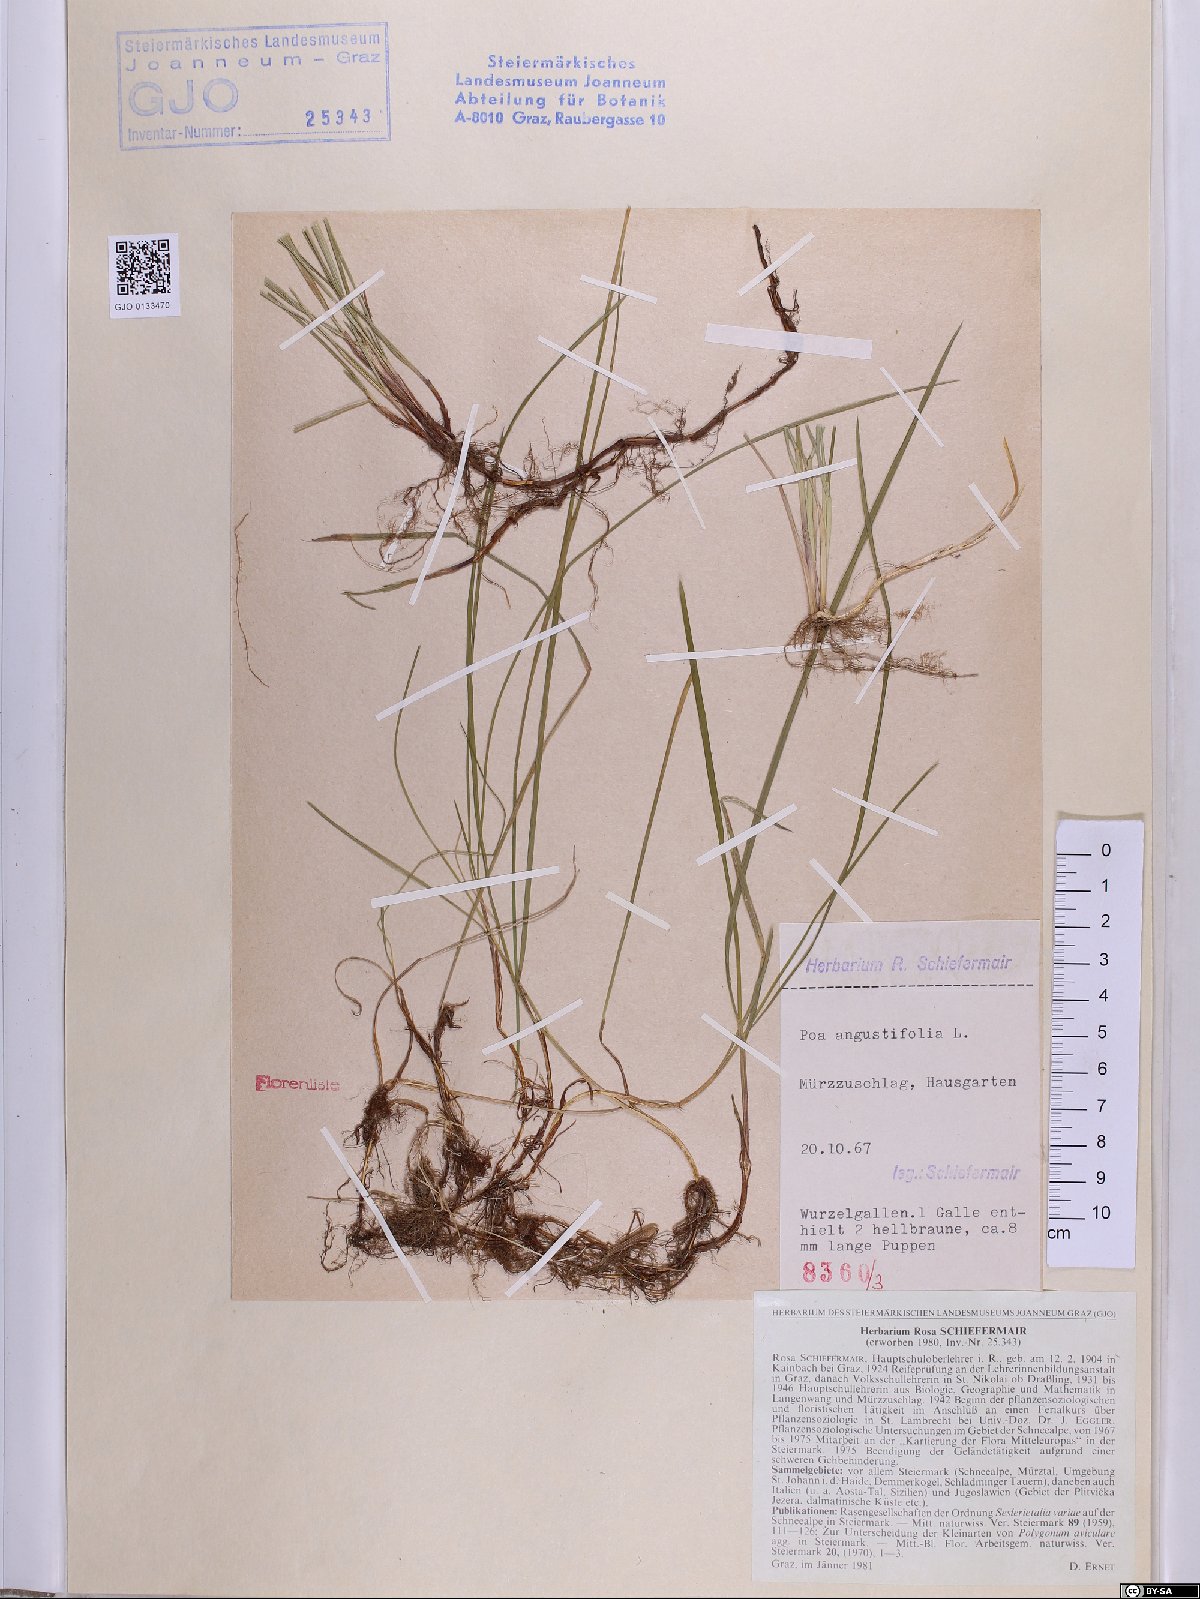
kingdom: Plantae
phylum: Tracheophyta
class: Liliopsida
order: Poales
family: Poaceae
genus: Poa
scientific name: Poa angustifolia
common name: Narrow-leaved meadow-grass
